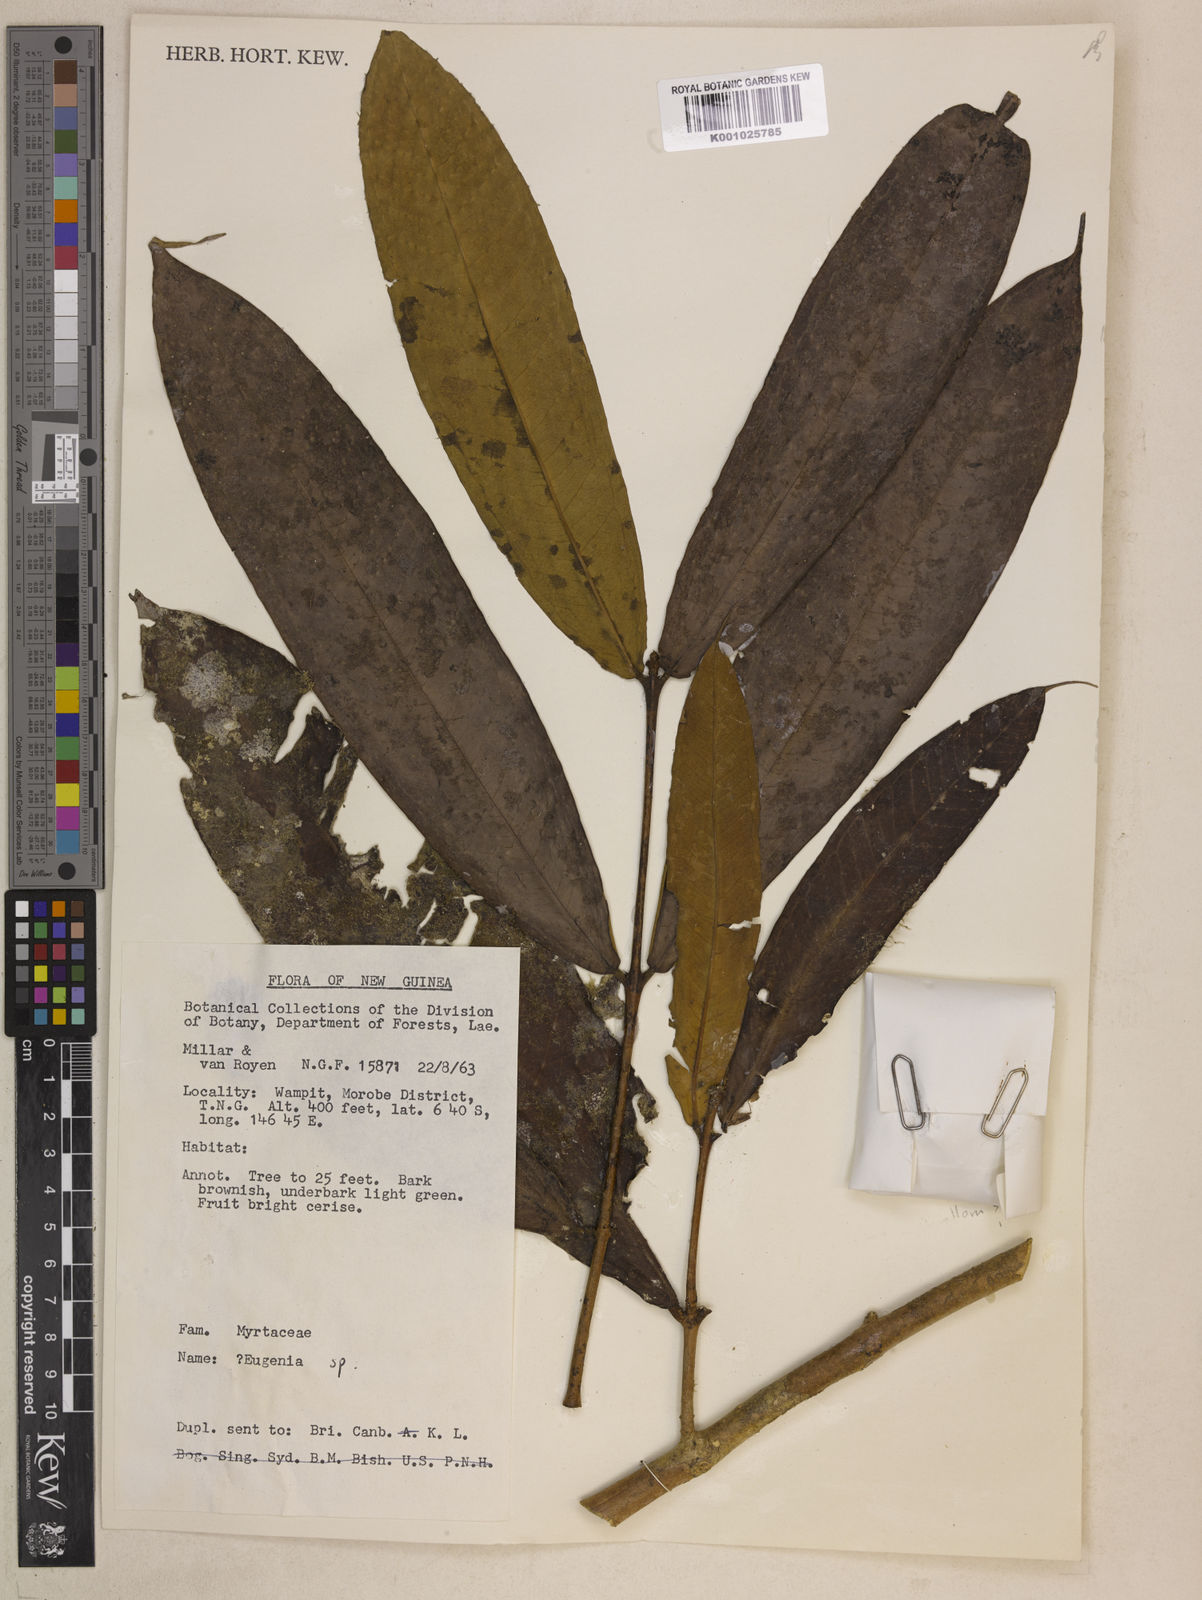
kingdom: Plantae
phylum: Tracheophyta
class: Magnoliopsida
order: Myrtales
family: Myrtaceae
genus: Syzygium
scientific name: Syzygium megalospermum
